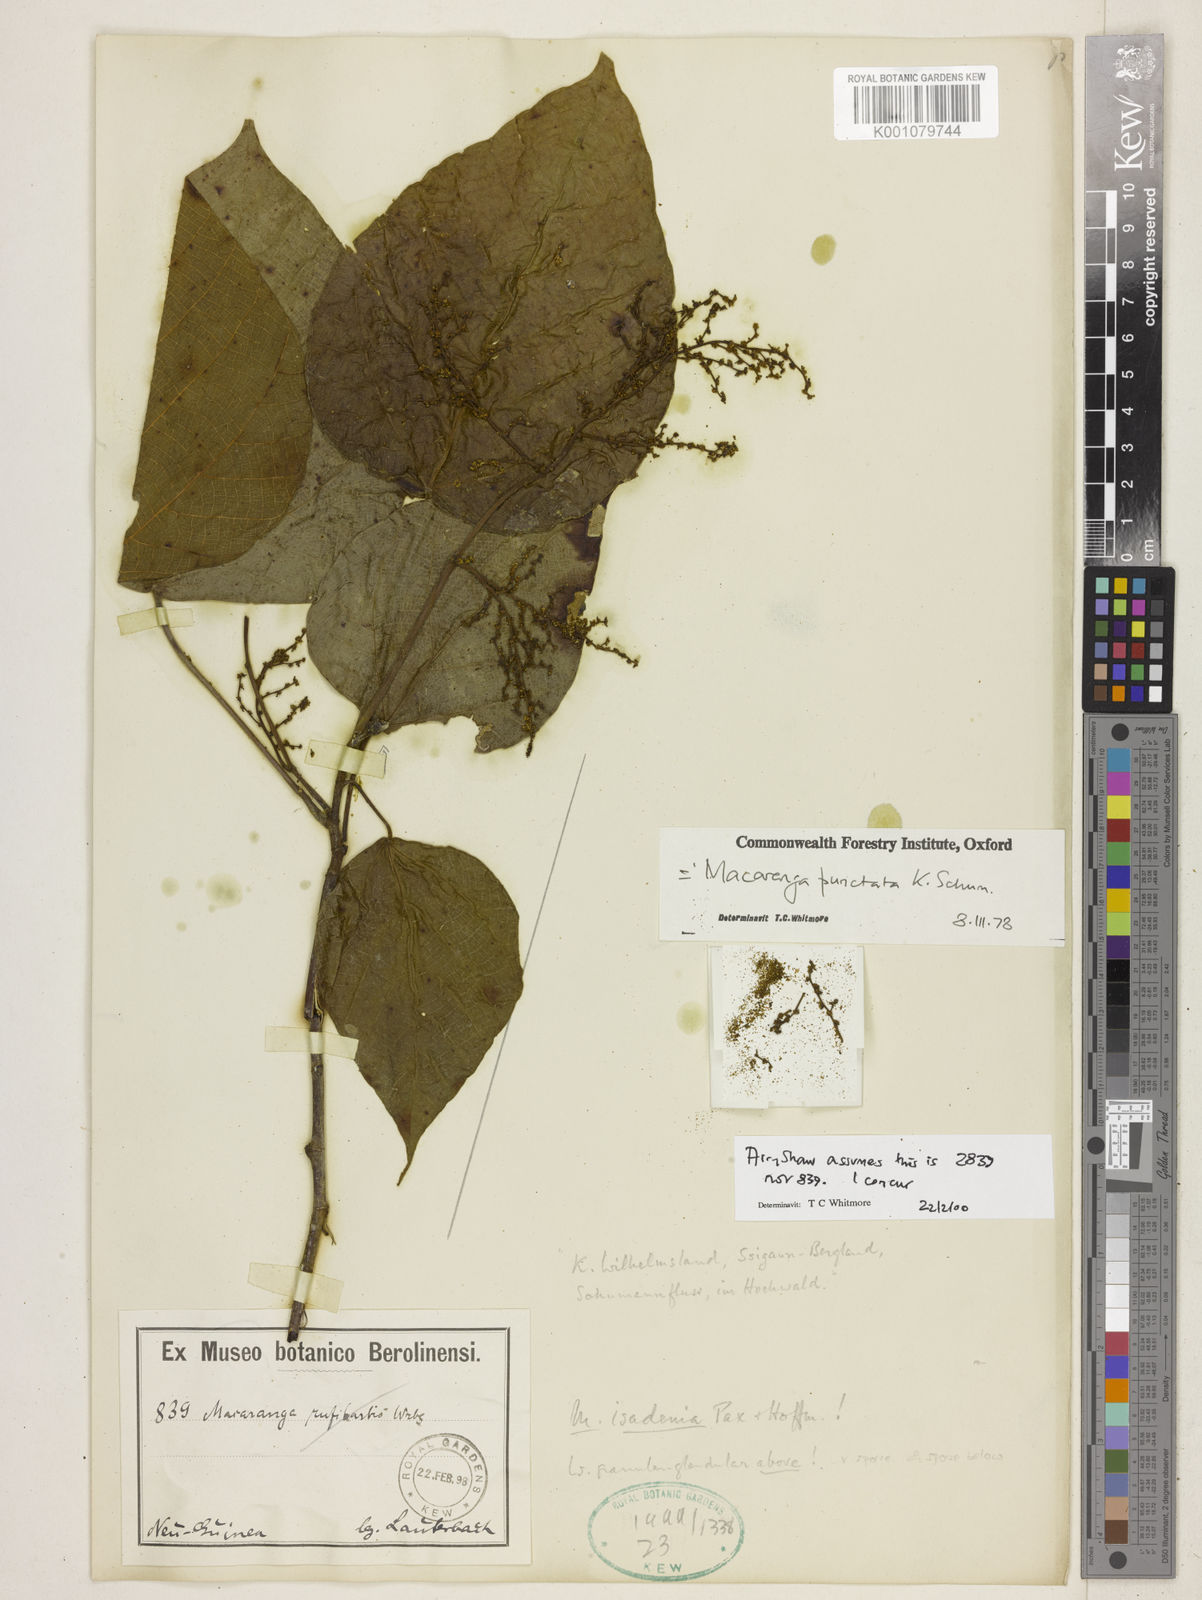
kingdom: Plantae
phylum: Tracheophyta
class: Magnoliopsida
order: Malpighiales
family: Euphorbiaceae
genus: Macaranga
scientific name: Macaranga punctata
